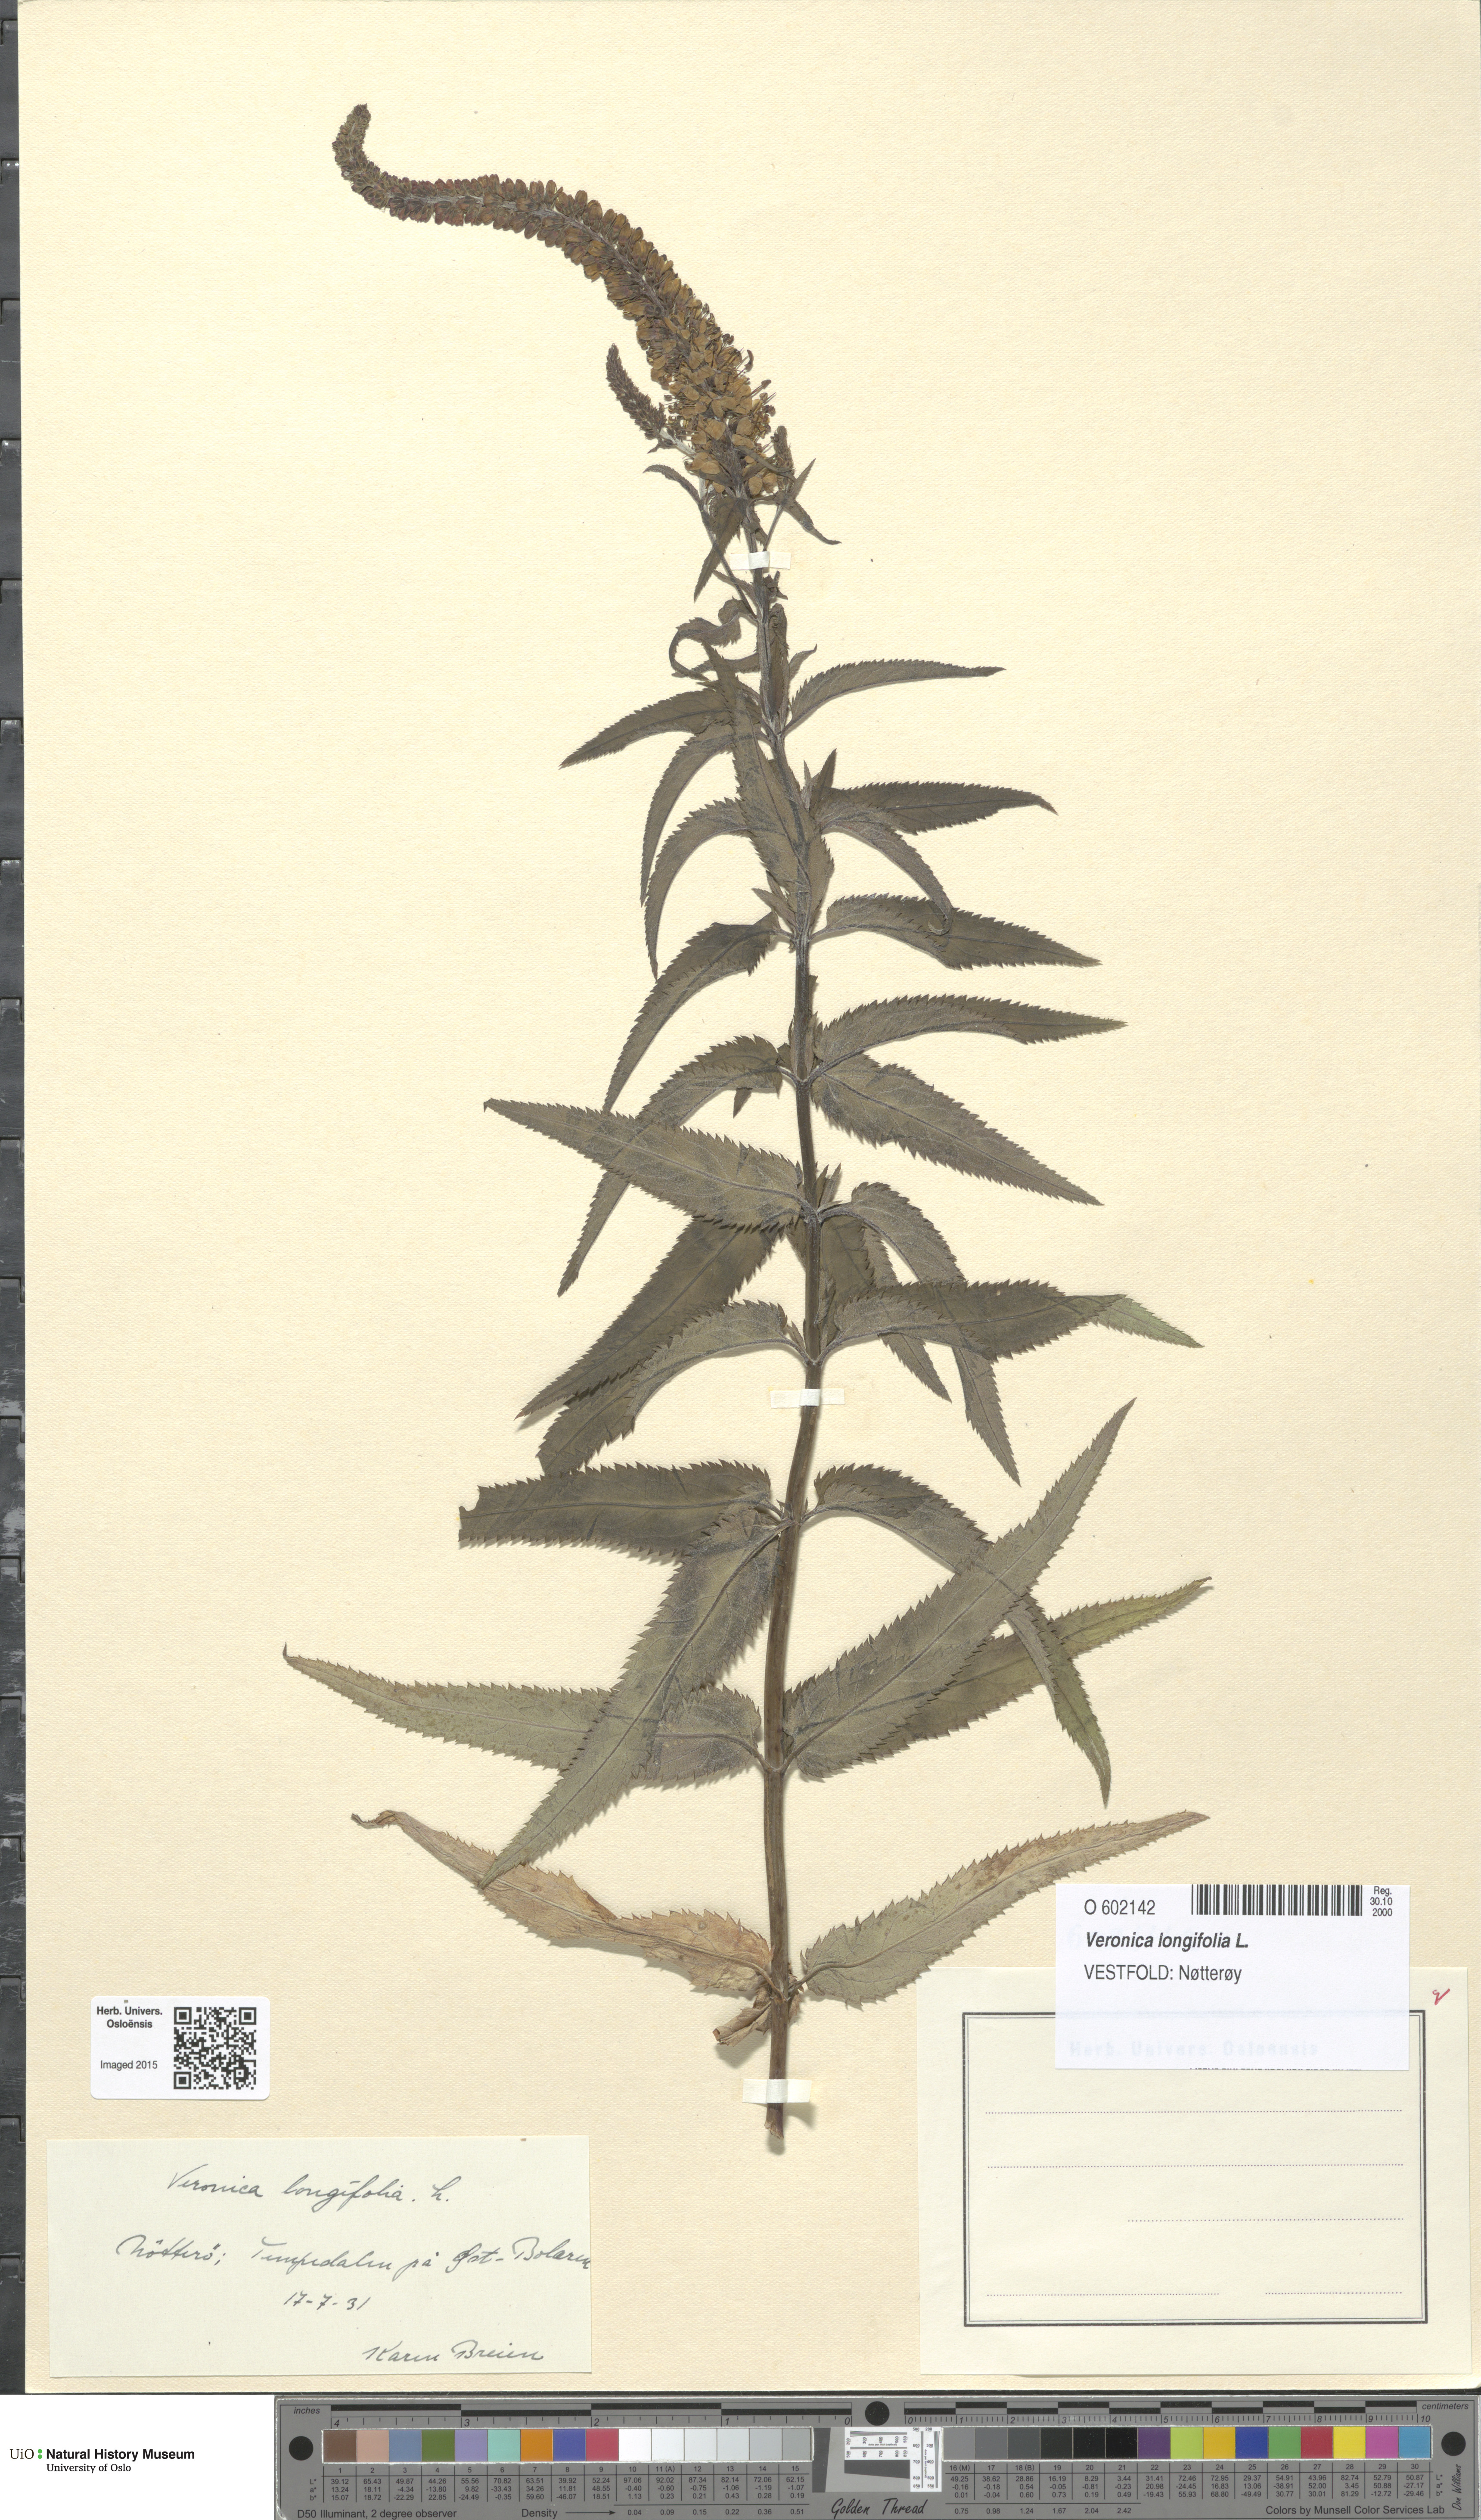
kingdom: Plantae
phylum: Tracheophyta
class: Magnoliopsida
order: Lamiales
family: Plantaginaceae
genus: Veronica
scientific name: Veronica longifolia
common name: Garden speedwell
